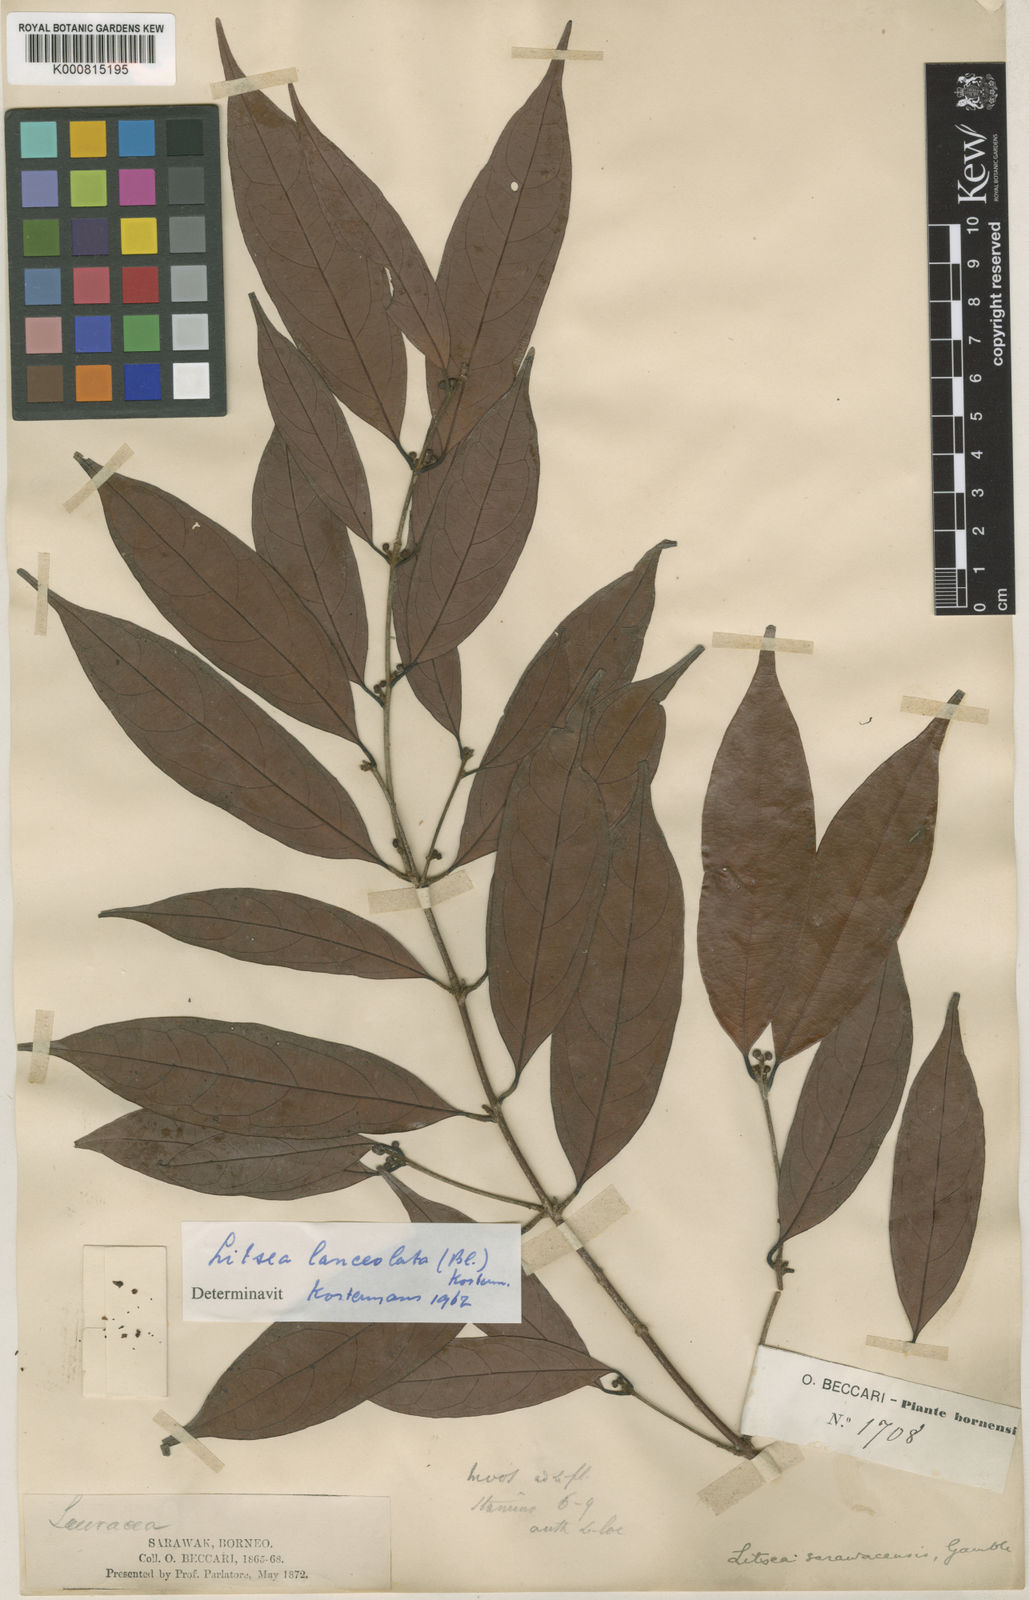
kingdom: Plantae
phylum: Tracheophyta
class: Magnoliopsida
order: Laurales
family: Lauraceae
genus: Litsea
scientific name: Litsea lanceolata
